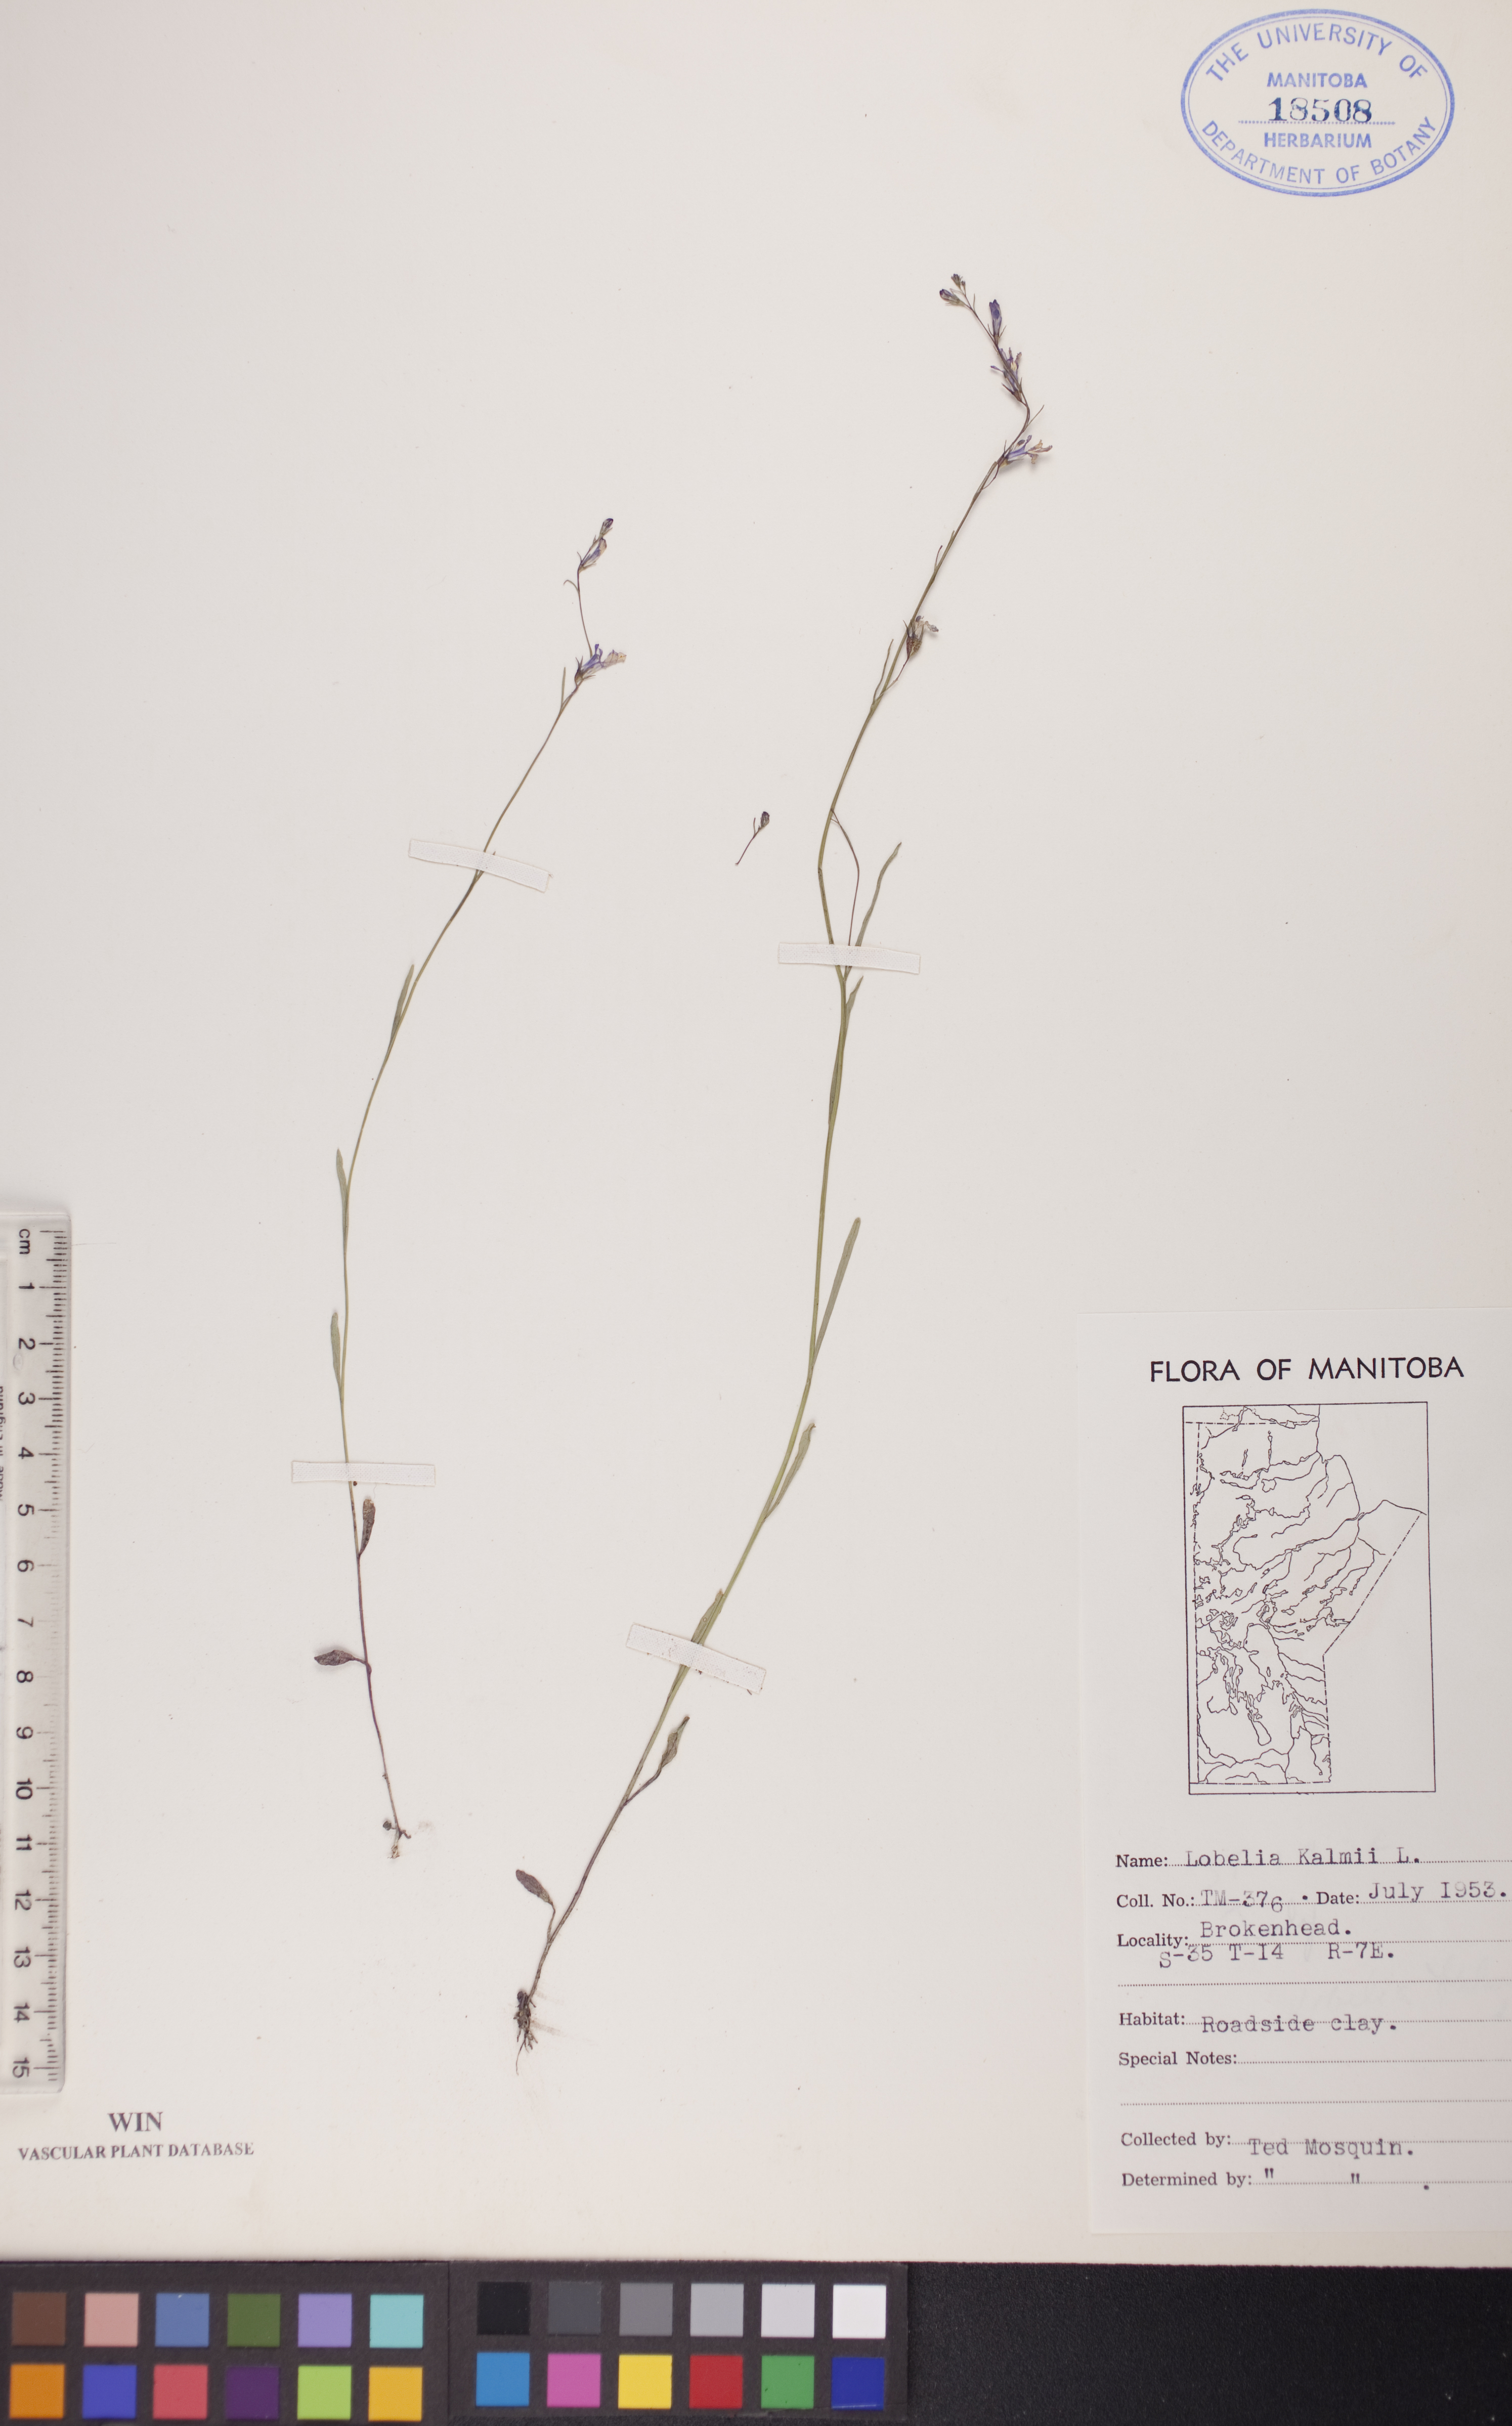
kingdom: Plantae
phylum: Tracheophyta
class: Magnoliopsida
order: Asterales
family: Campanulaceae
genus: Lobelia
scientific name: Lobelia kalmii
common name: Kalm's lobelia
